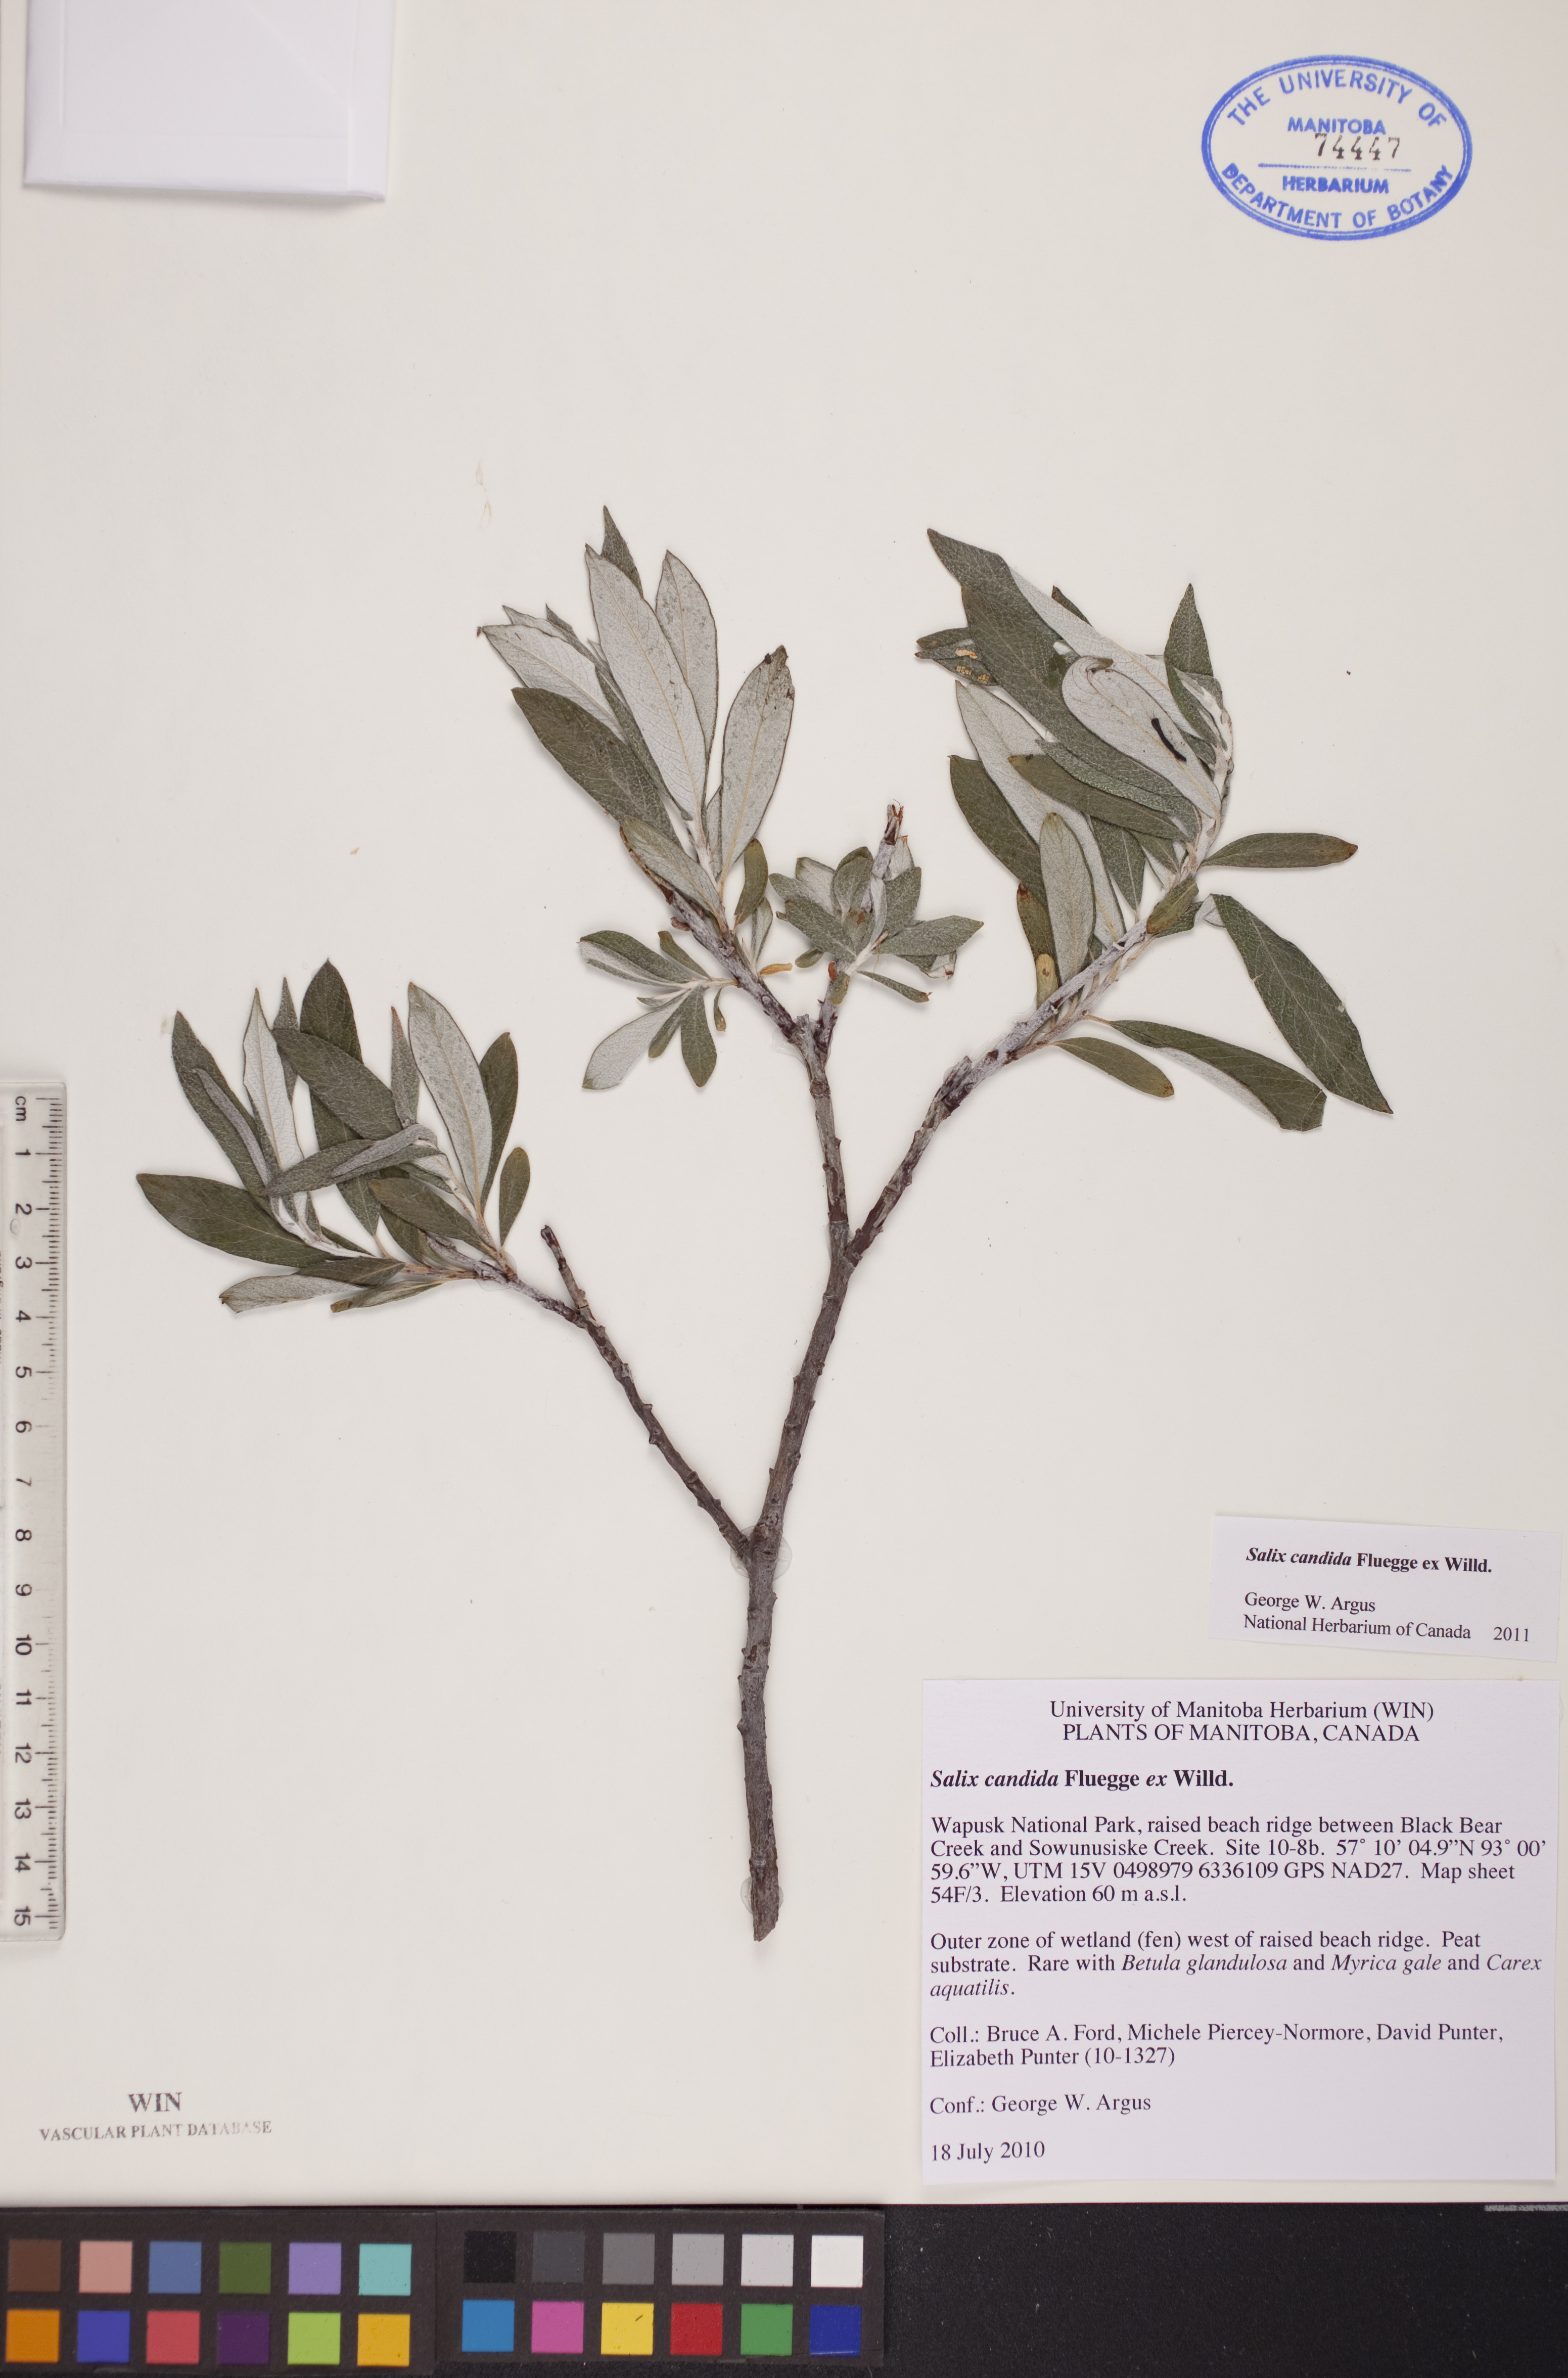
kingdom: Plantae
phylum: Tracheophyta
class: Magnoliopsida
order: Malpighiales
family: Salicaceae
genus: Salix
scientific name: Salix candida
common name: Hoary willow
